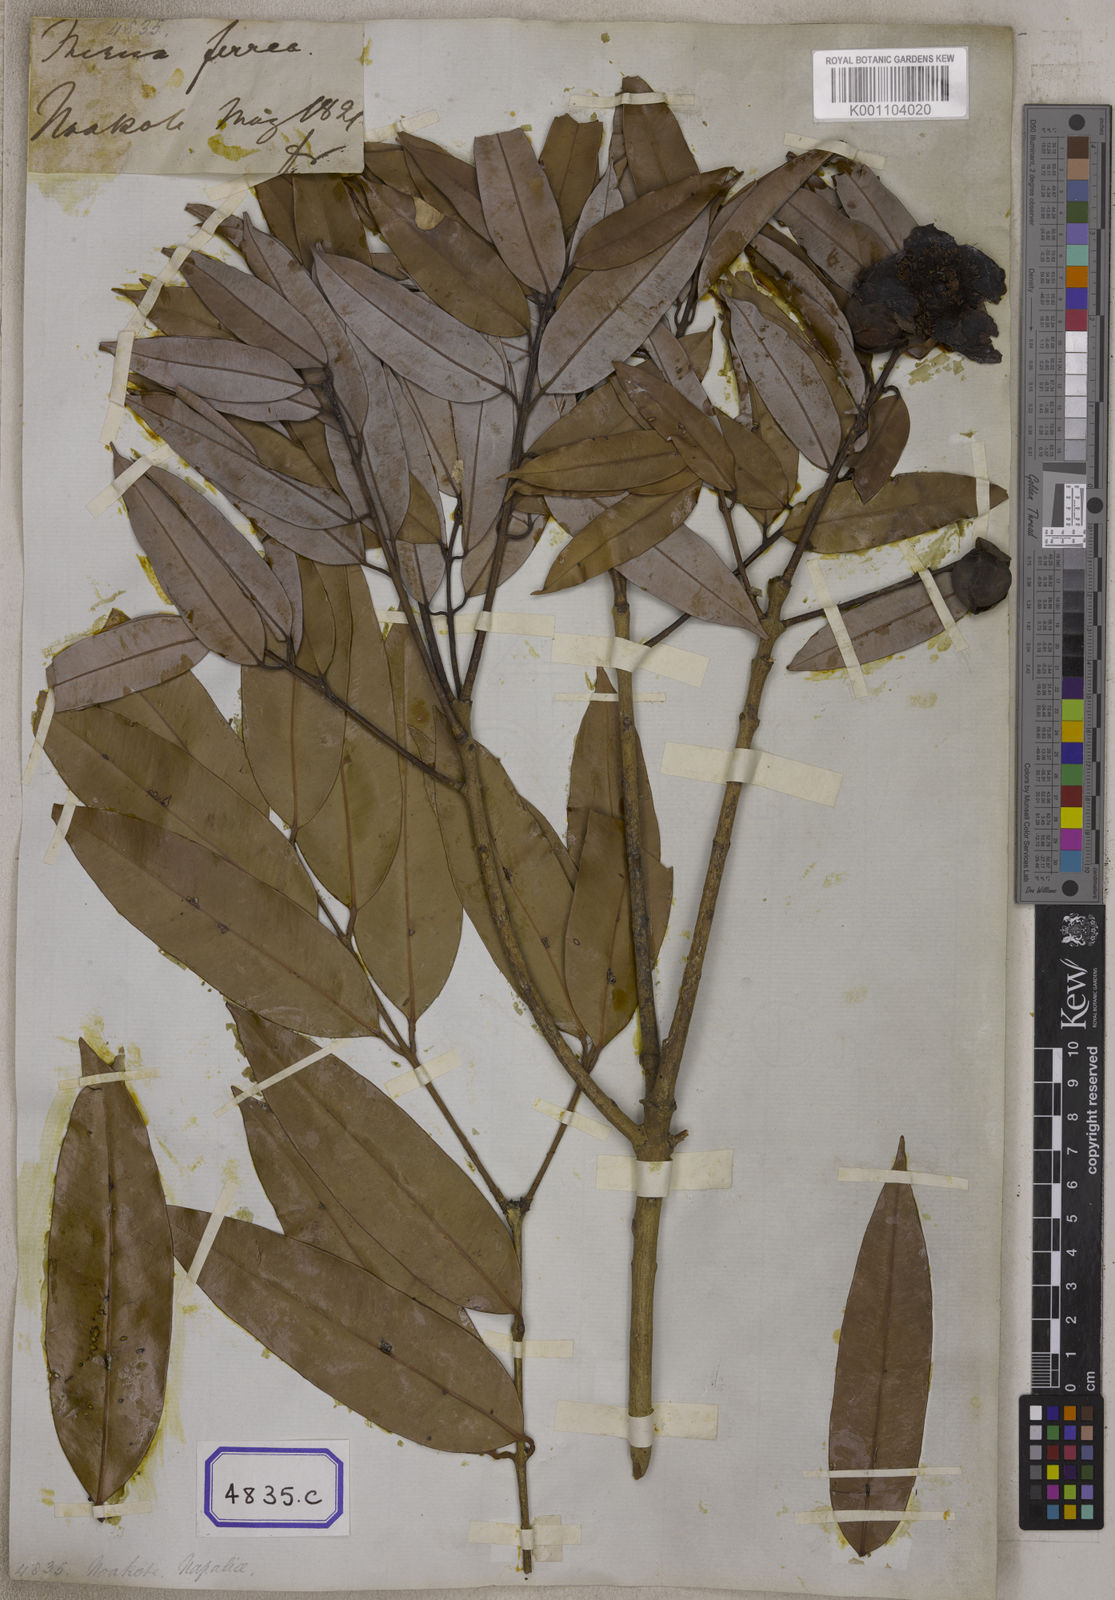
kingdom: Plantae
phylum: Tracheophyta
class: Magnoliopsida
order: Malpighiales
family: Calophyllaceae
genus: Mesua
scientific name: Mesua ferrea
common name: Mesua
